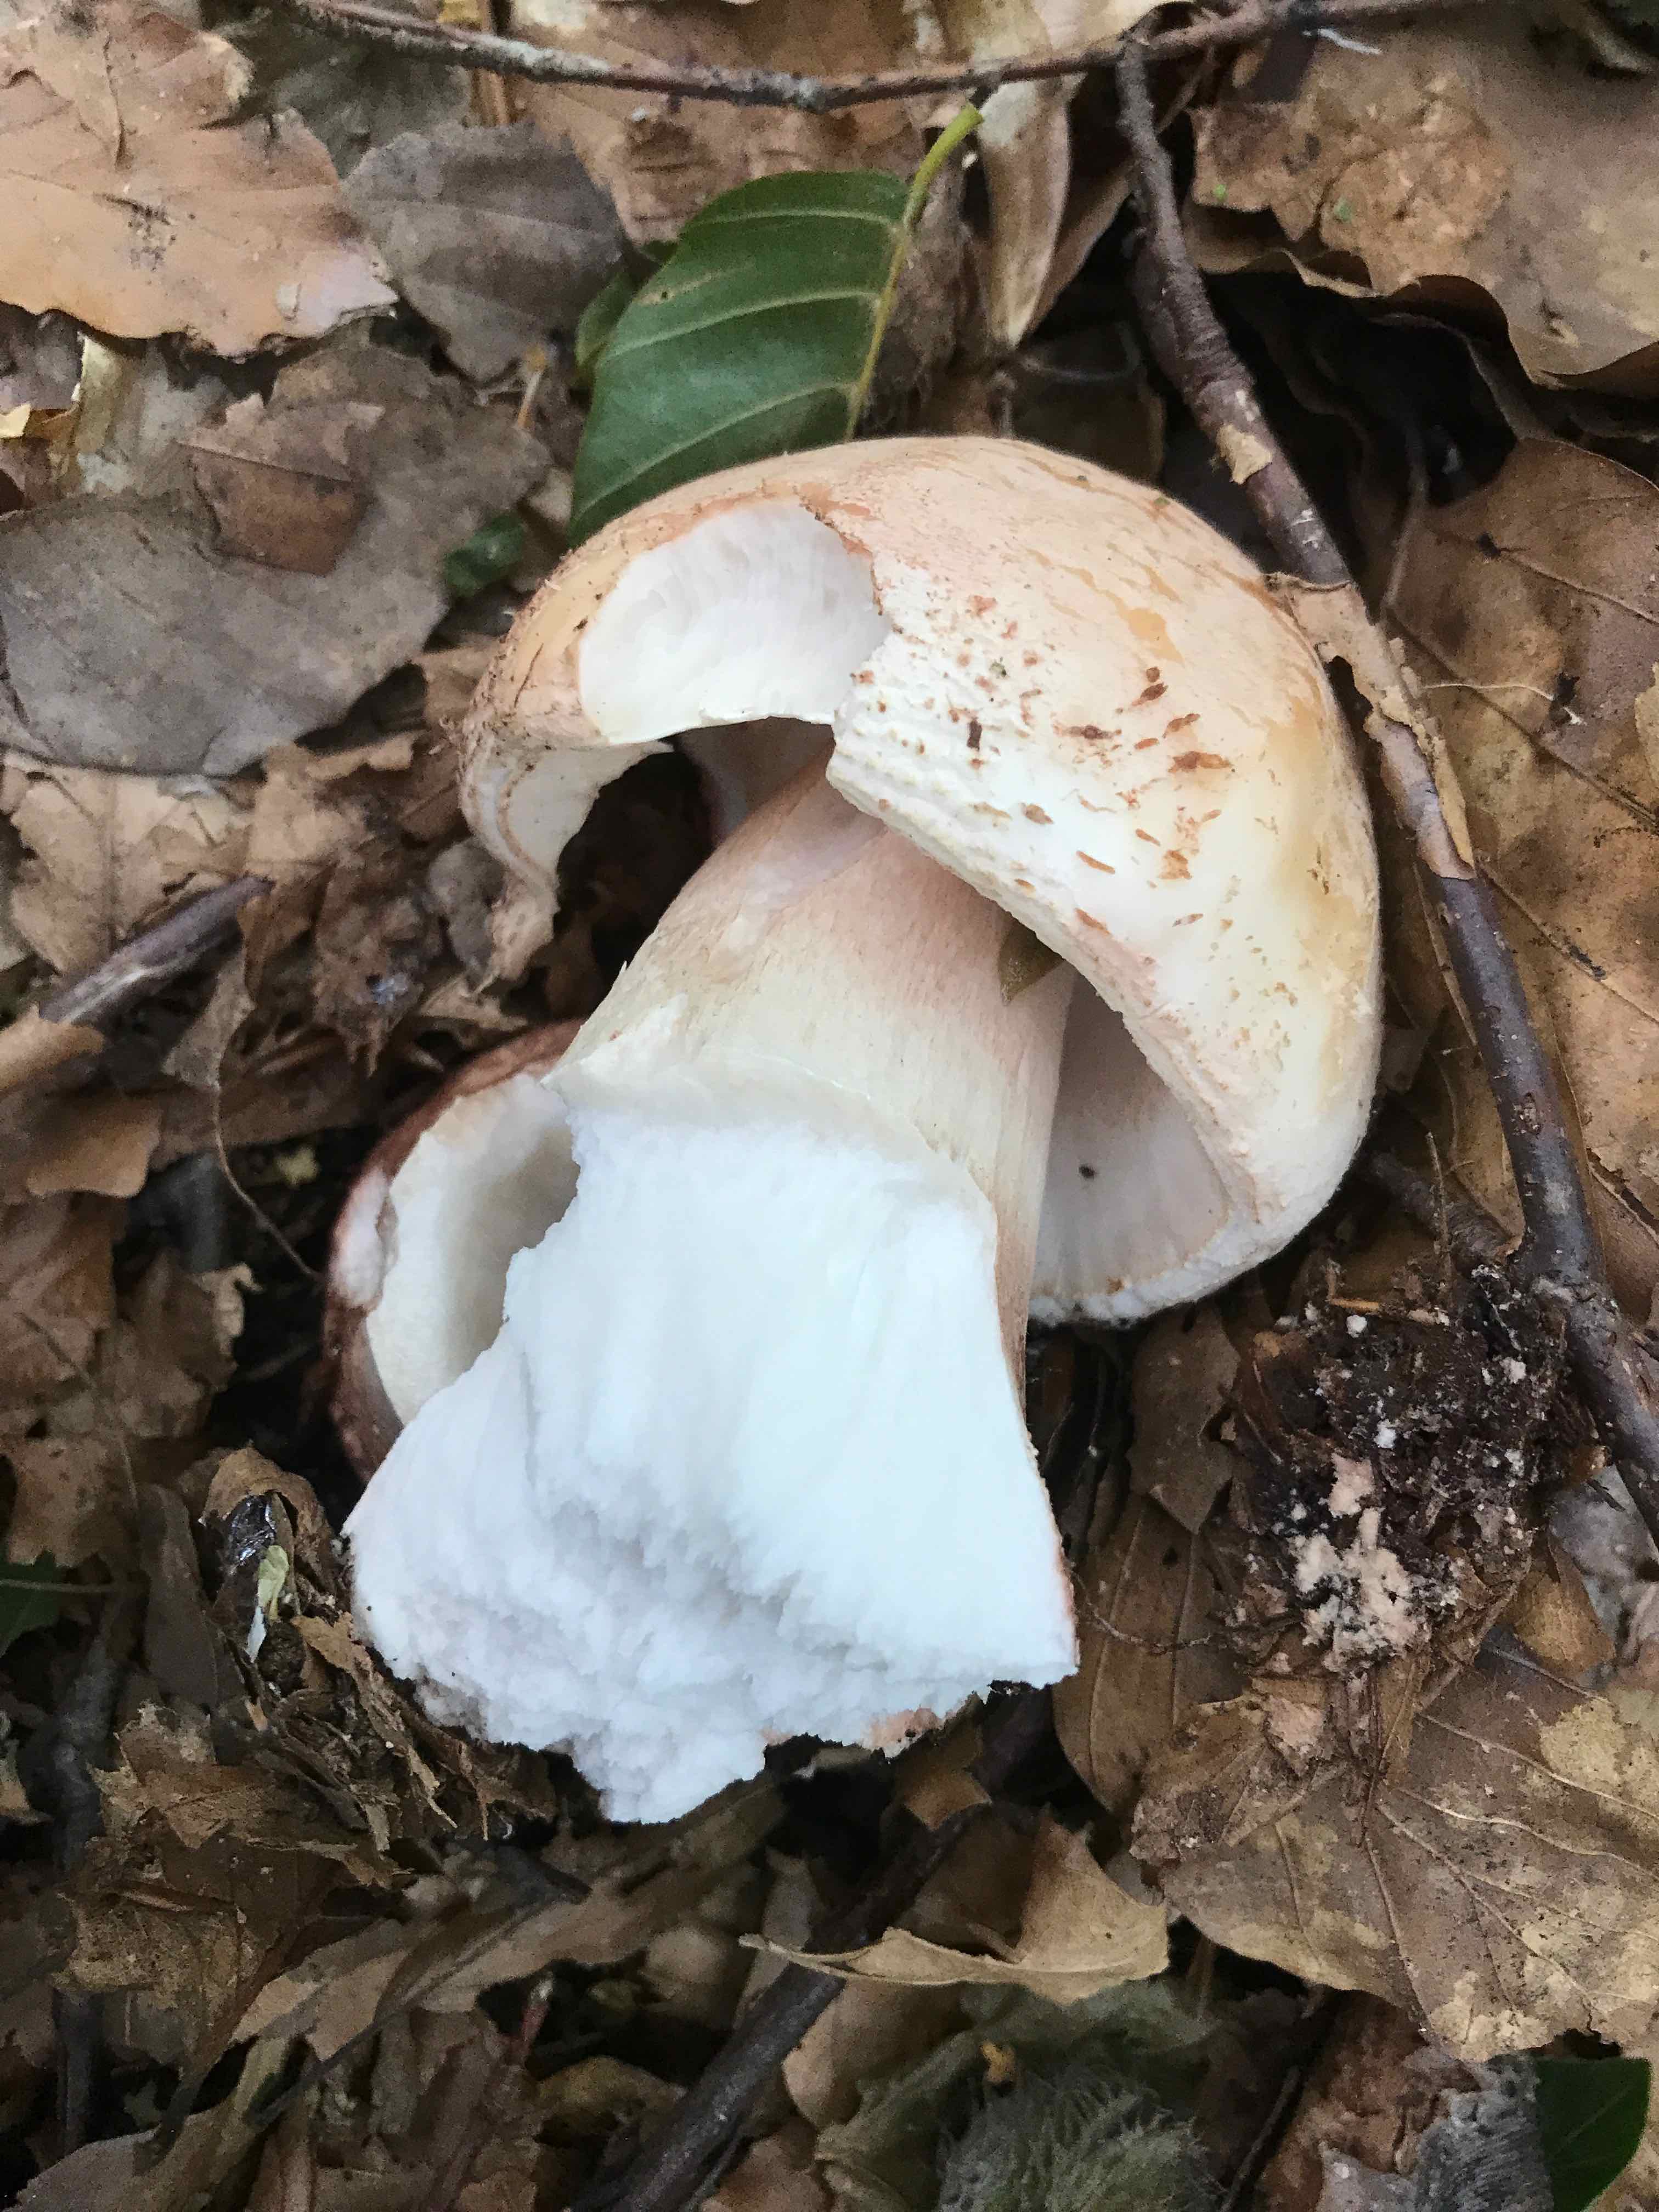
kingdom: Fungi
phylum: Basidiomycota
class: Agaricomycetes
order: Agaricales
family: Amanitaceae
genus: Amanita
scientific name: Amanita rubescens
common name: rødmende fluesvamp
